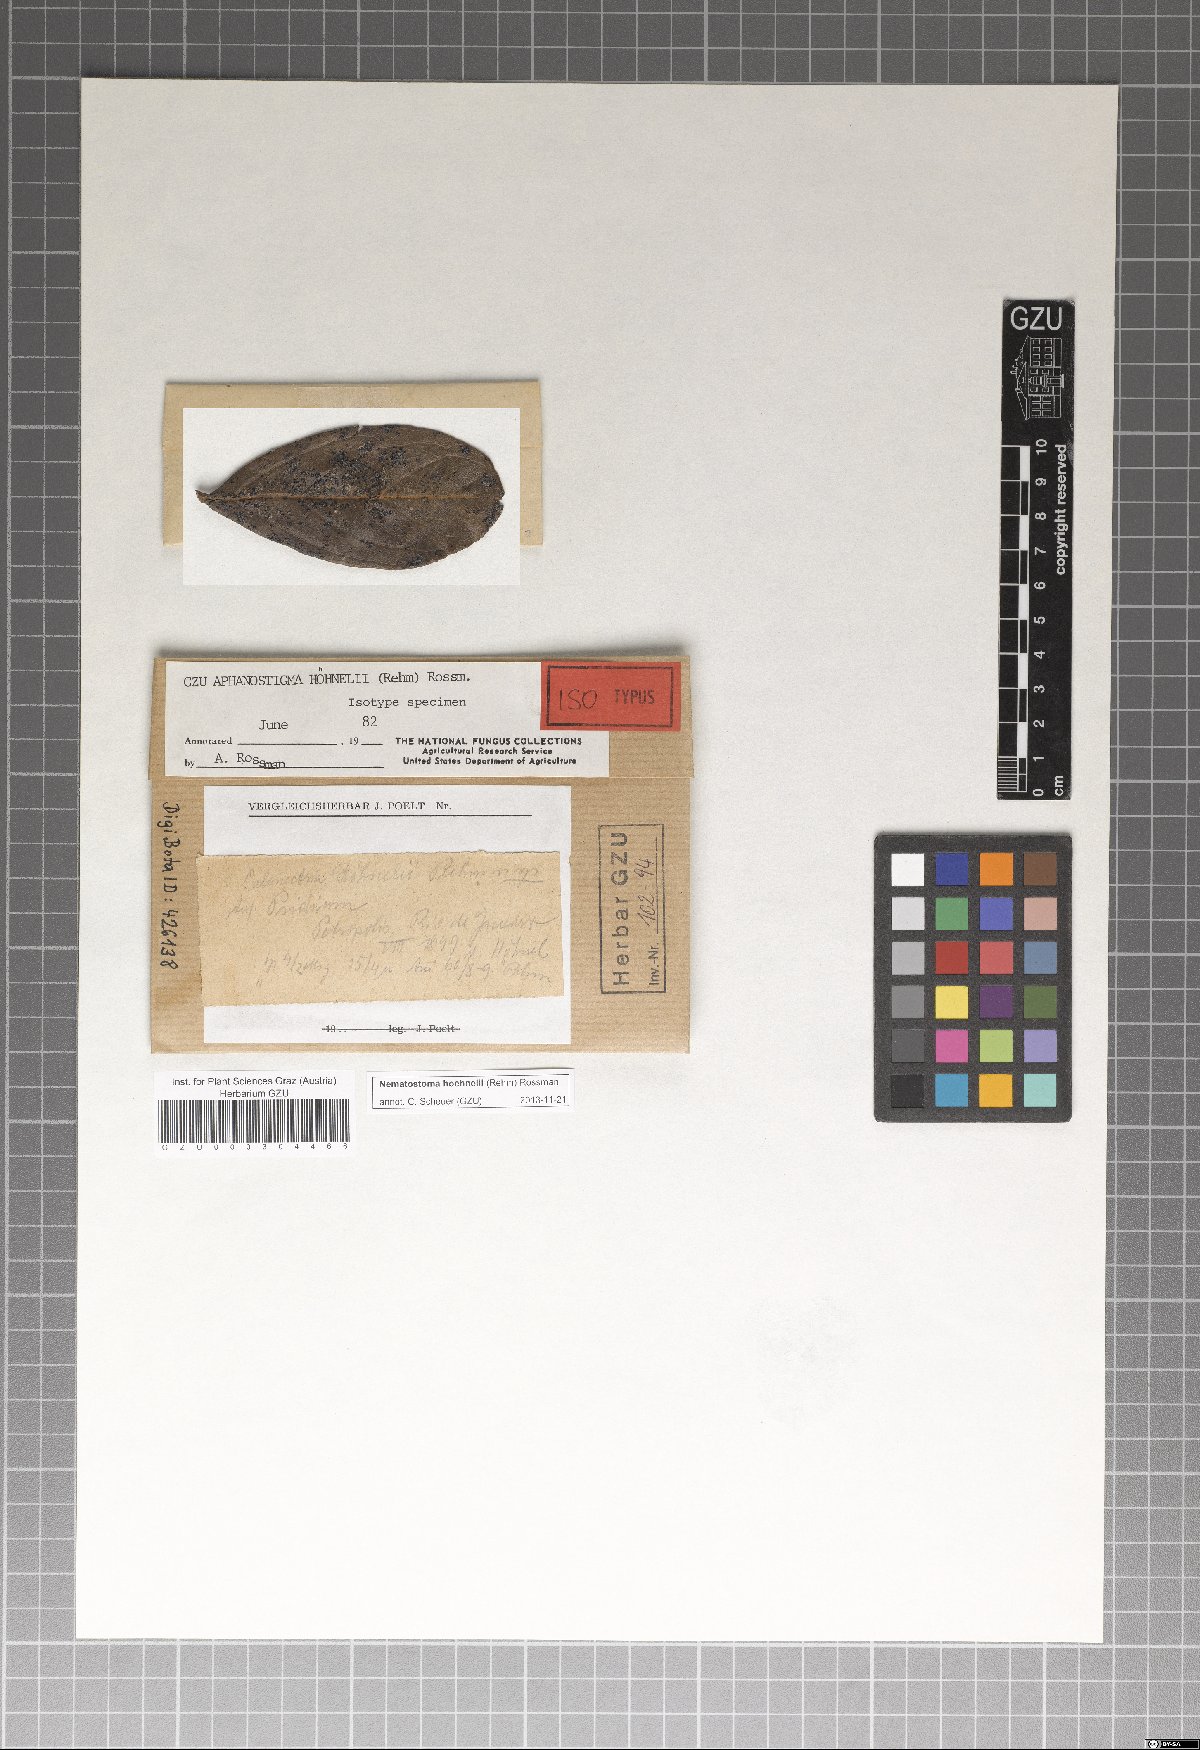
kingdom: Fungi
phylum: Ascomycota
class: Dothideomycetes
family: Pseudoperisporiaceae
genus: Nematostoma
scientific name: Nematostoma hoehnelii
